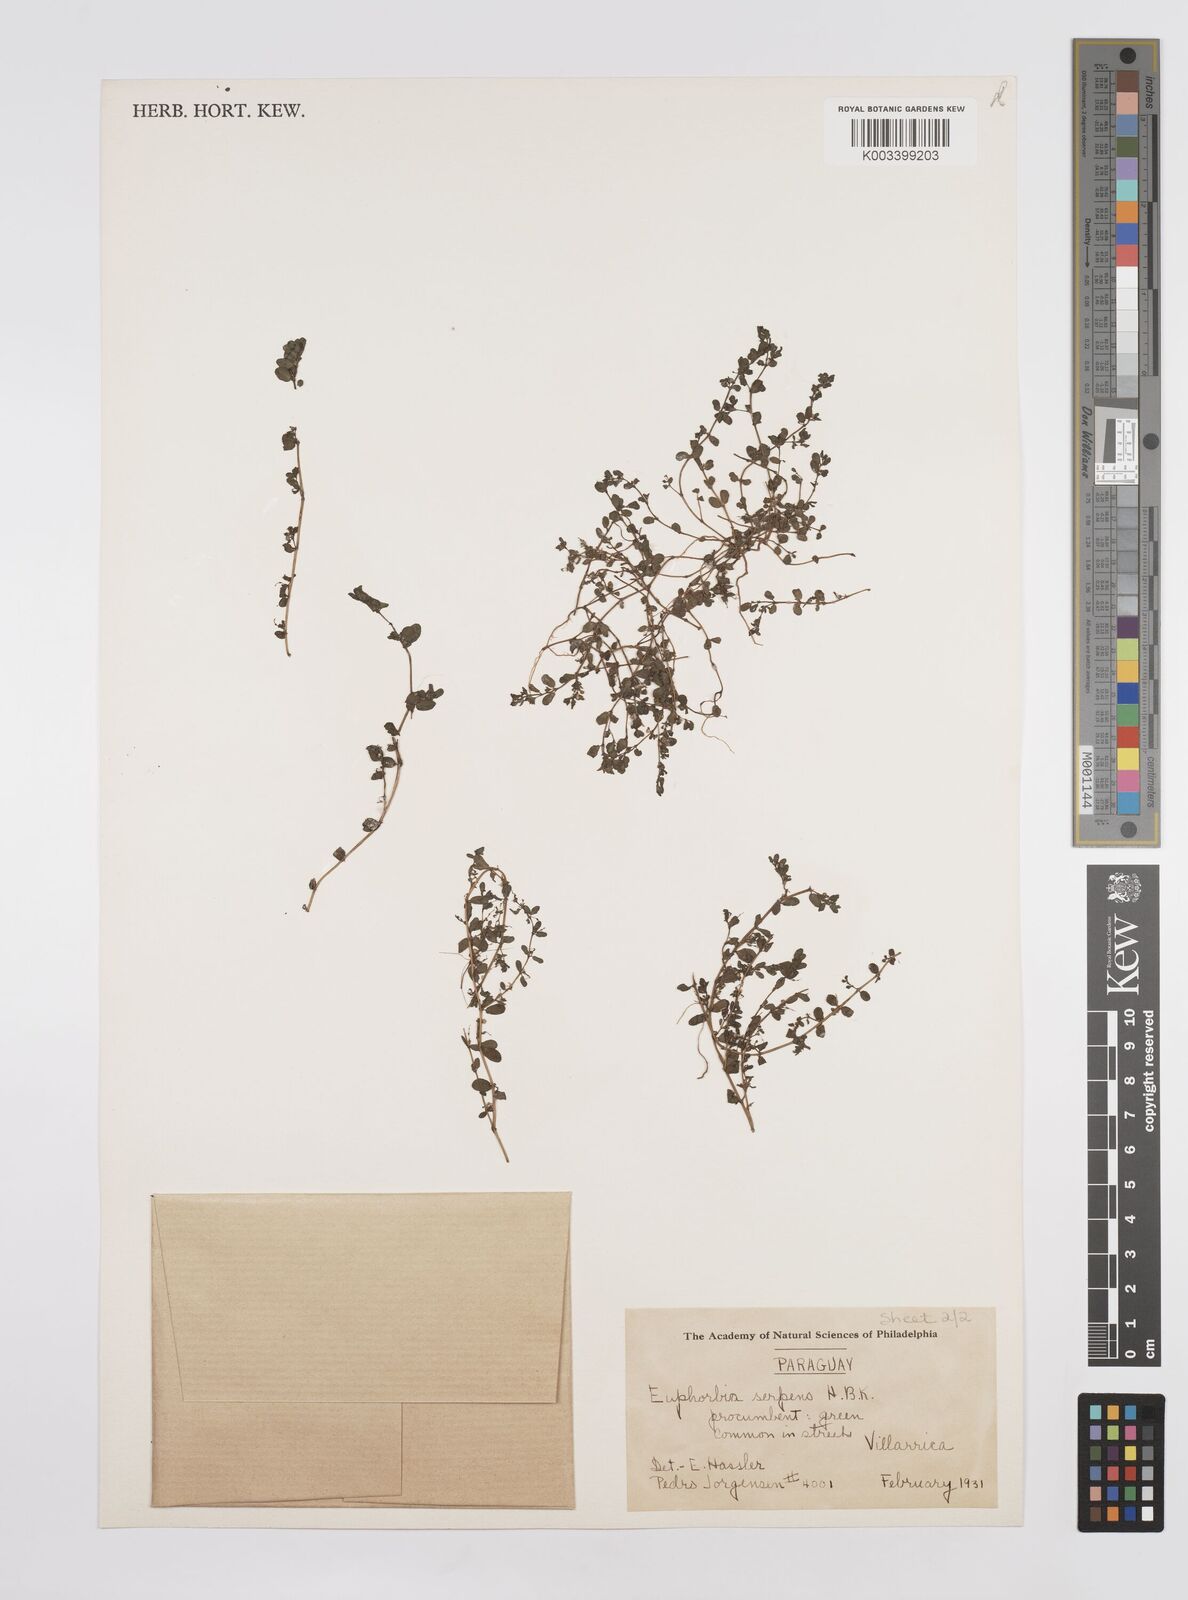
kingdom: Plantae
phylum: Tracheophyta
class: Magnoliopsida
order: Malpighiales
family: Euphorbiaceae
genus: Euphorbia
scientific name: Euphorbia serpens
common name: Matted sandmat
